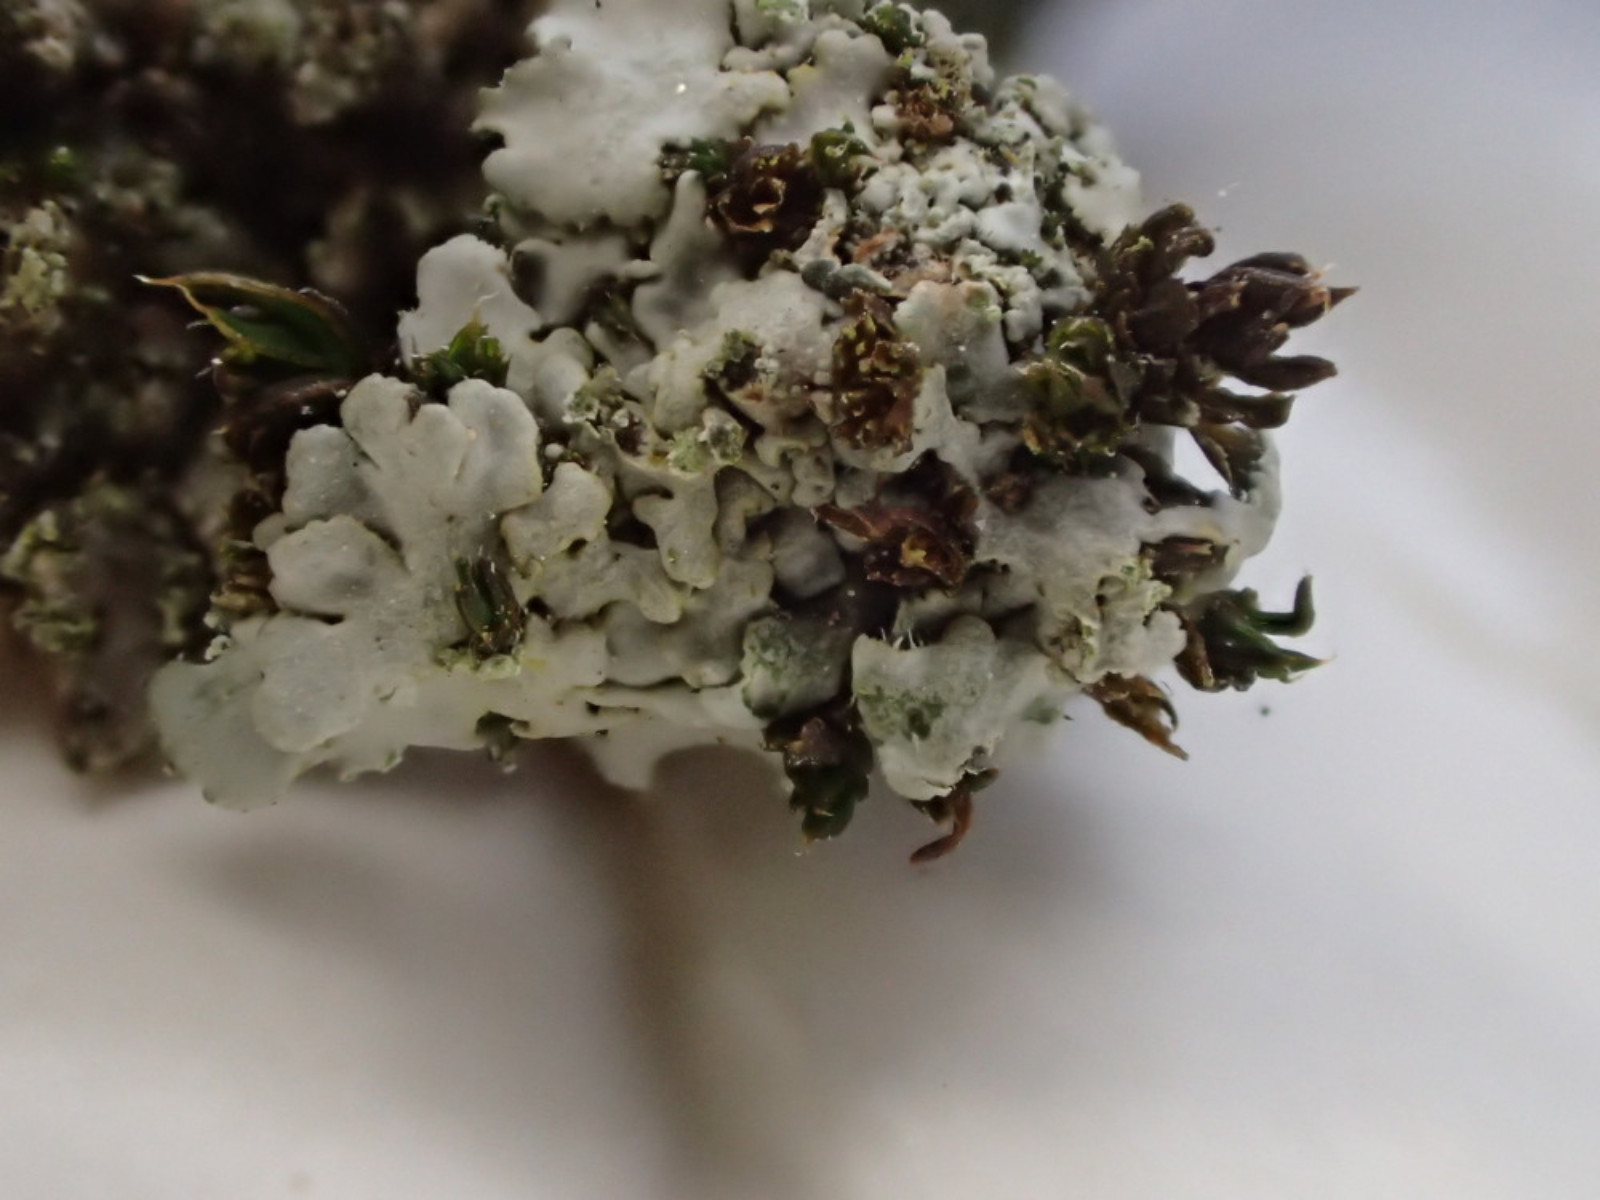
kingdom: Fungi
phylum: Ascomycota
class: Lecanoromycetes
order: Caliciales
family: Physciaceae
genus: Phaeophyscia
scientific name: Phaeophyscia orbicularis
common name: grågrøn rosetlav
